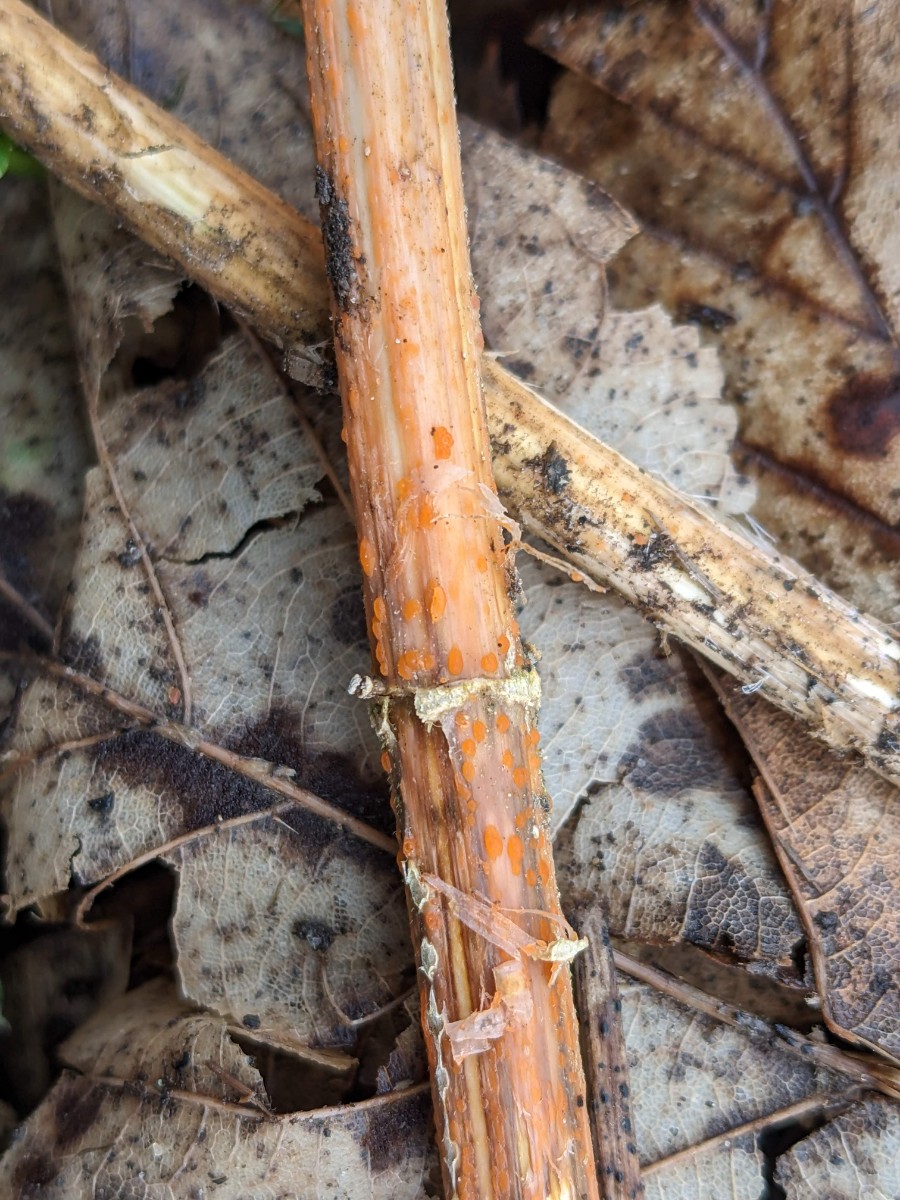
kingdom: Fungi
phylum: Ascomycota
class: Leotiomycetes
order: Helotiales
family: Calloriaceae
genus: Calloria
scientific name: Calloria urticae
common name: nælde-orangeskive
